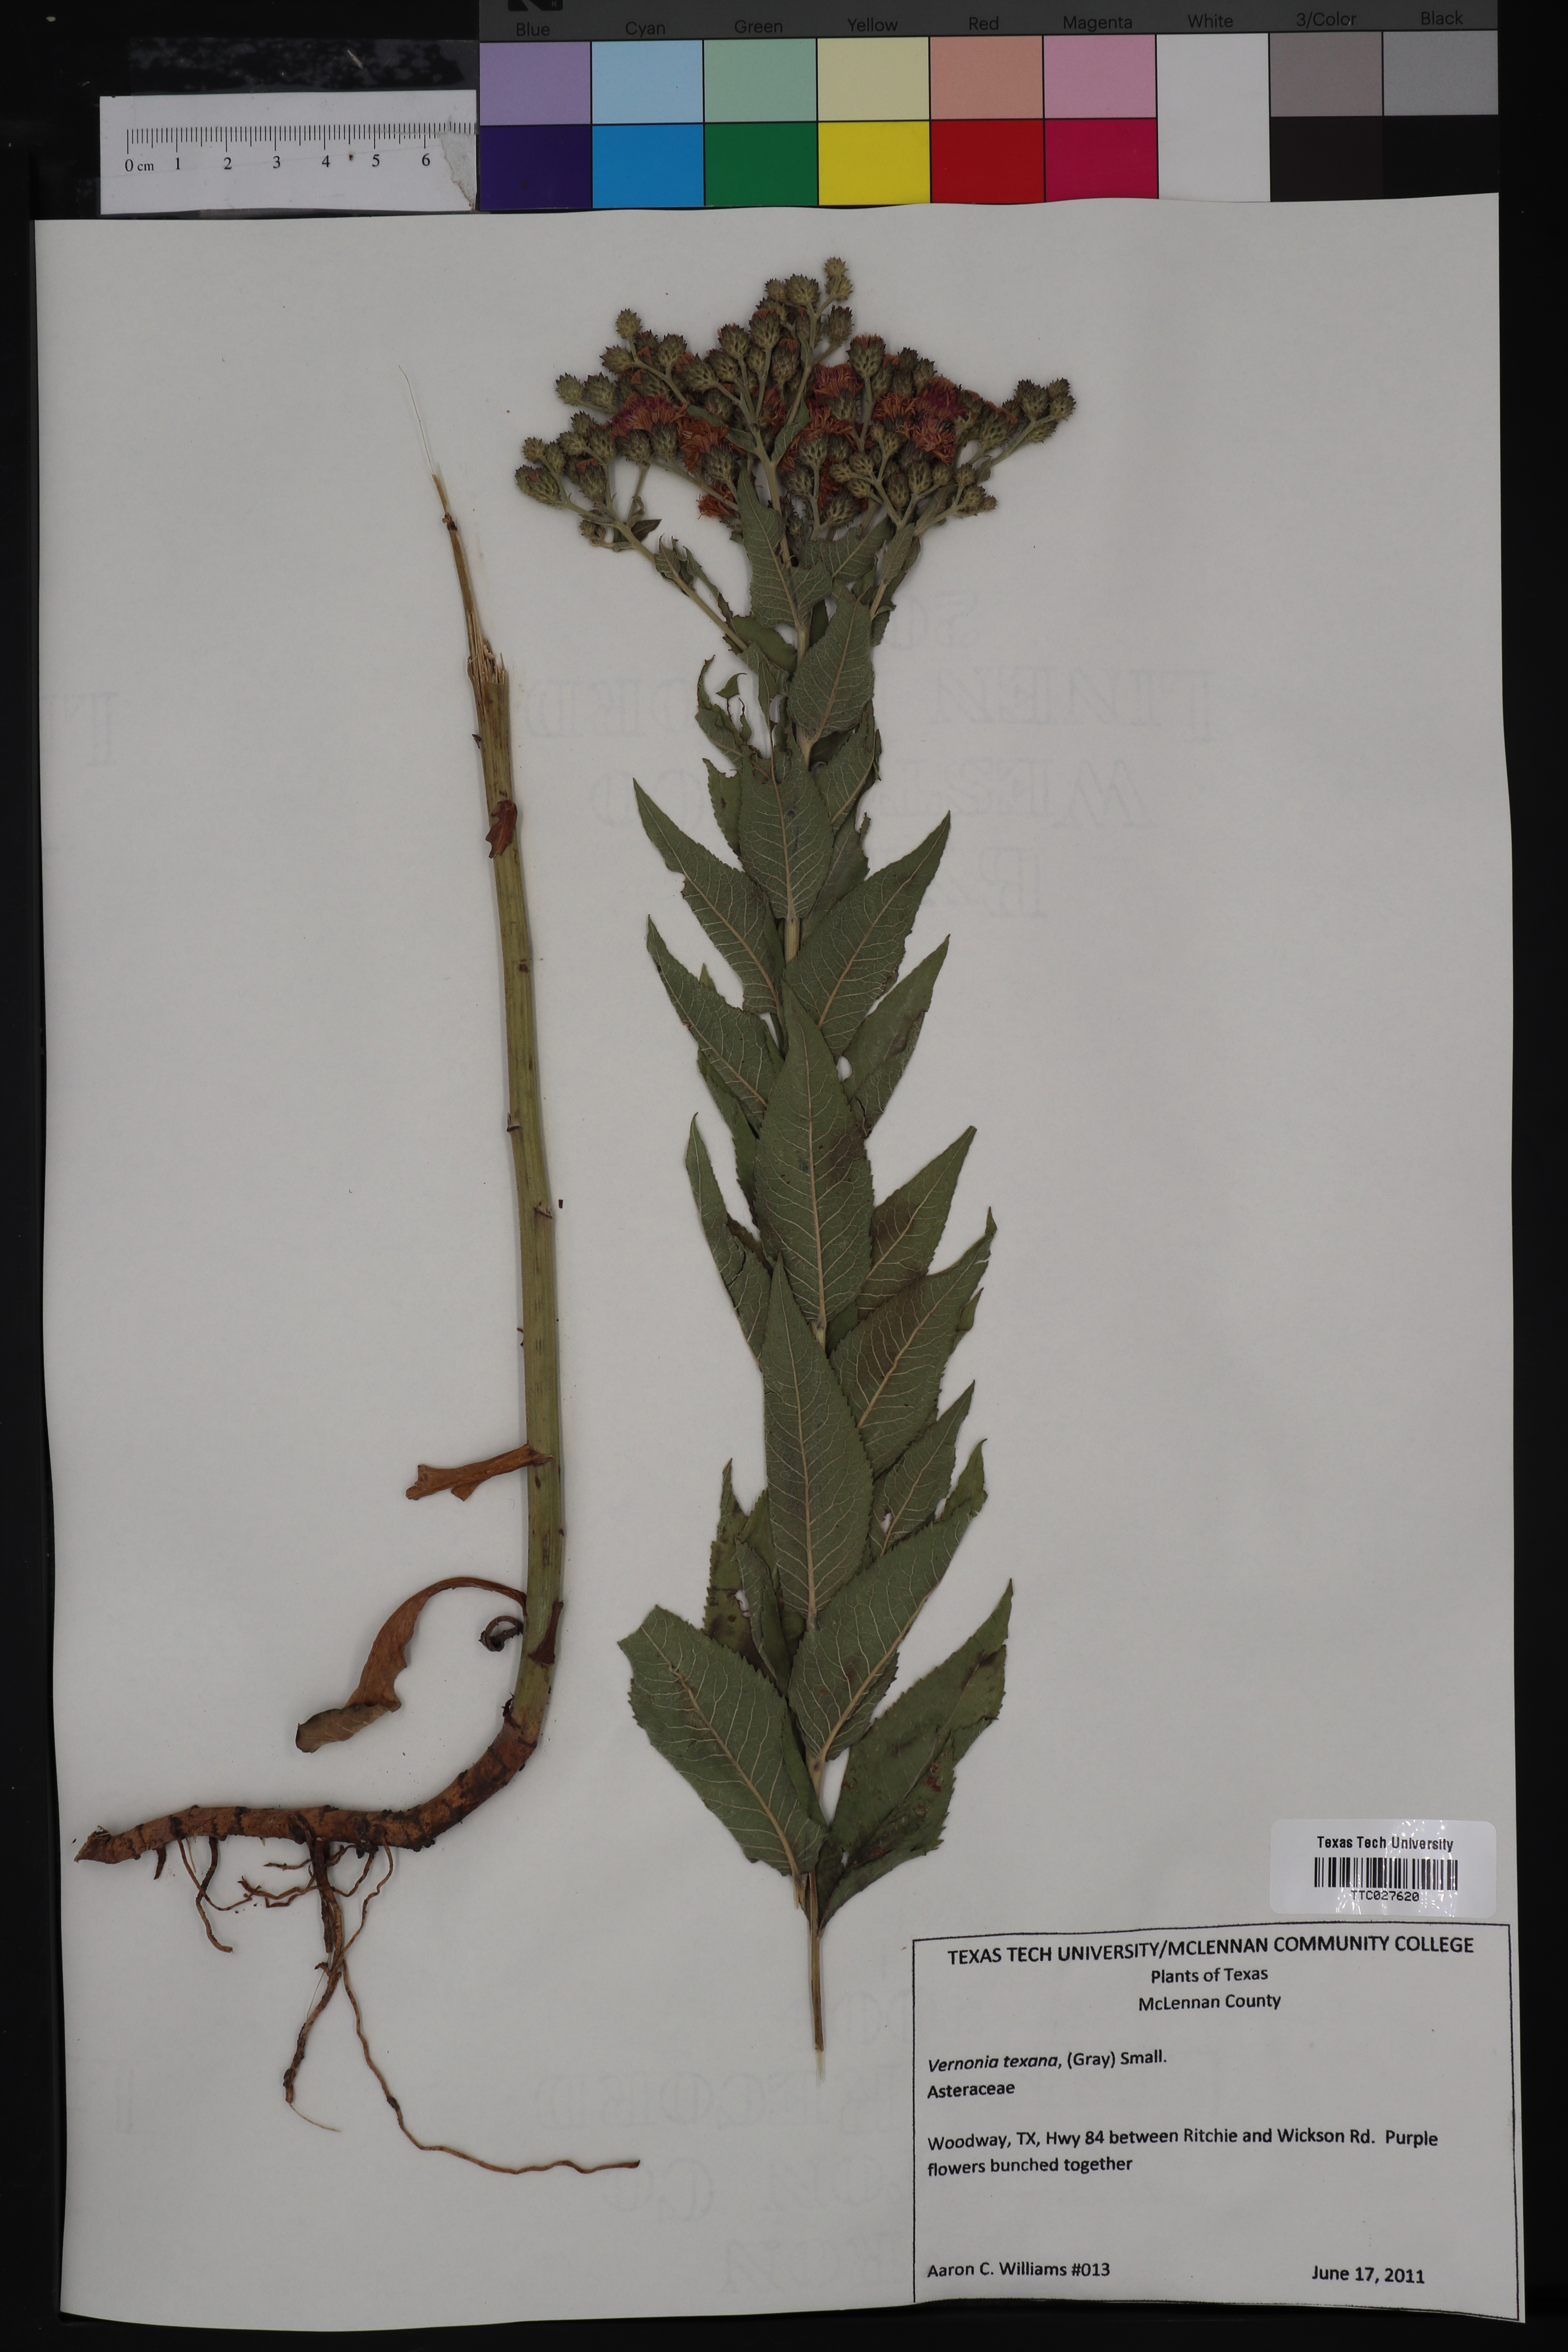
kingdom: Plantae
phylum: Tracheophyta
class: Magnoliopsida
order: Asterales
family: Asteraceae
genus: Vernonia
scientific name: Vernonia texana
